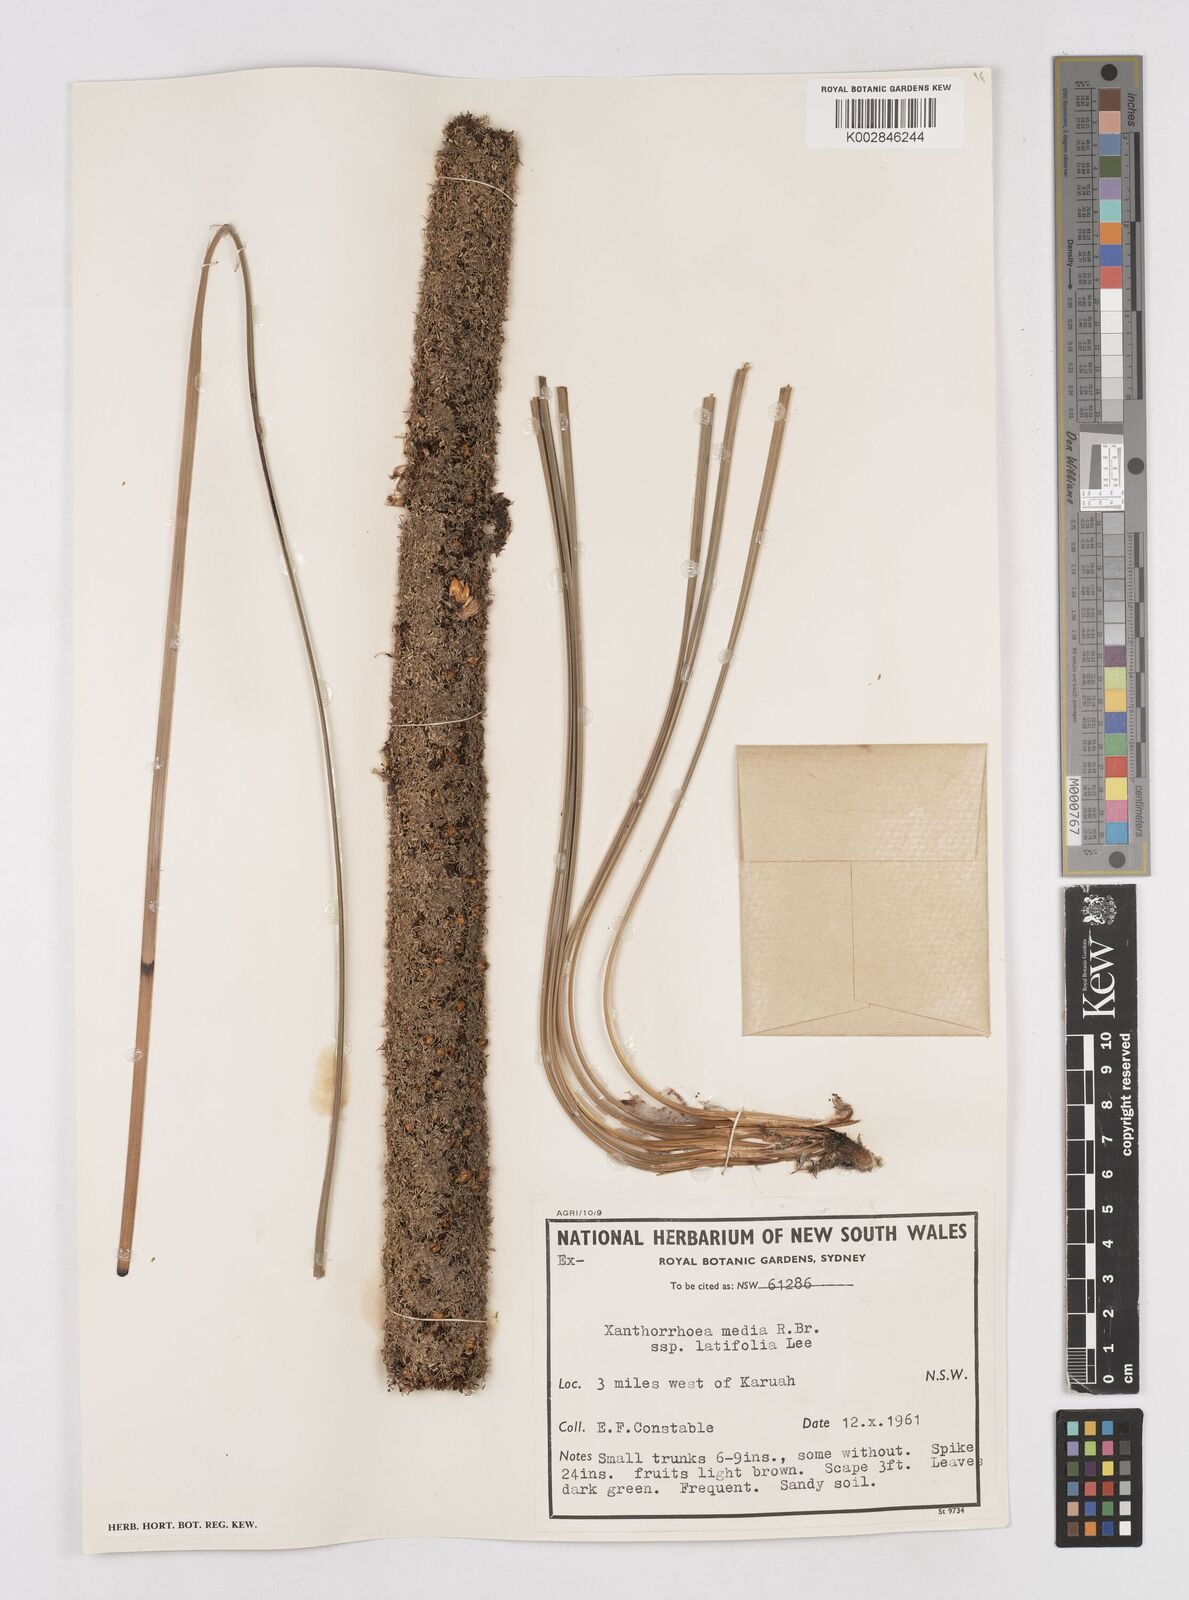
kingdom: Plantae
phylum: Tracheophyta
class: Liliopsida
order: Asparagales
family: Asphodelaceae
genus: Xanthorrhoea
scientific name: Xanthorrhoea latifolia
